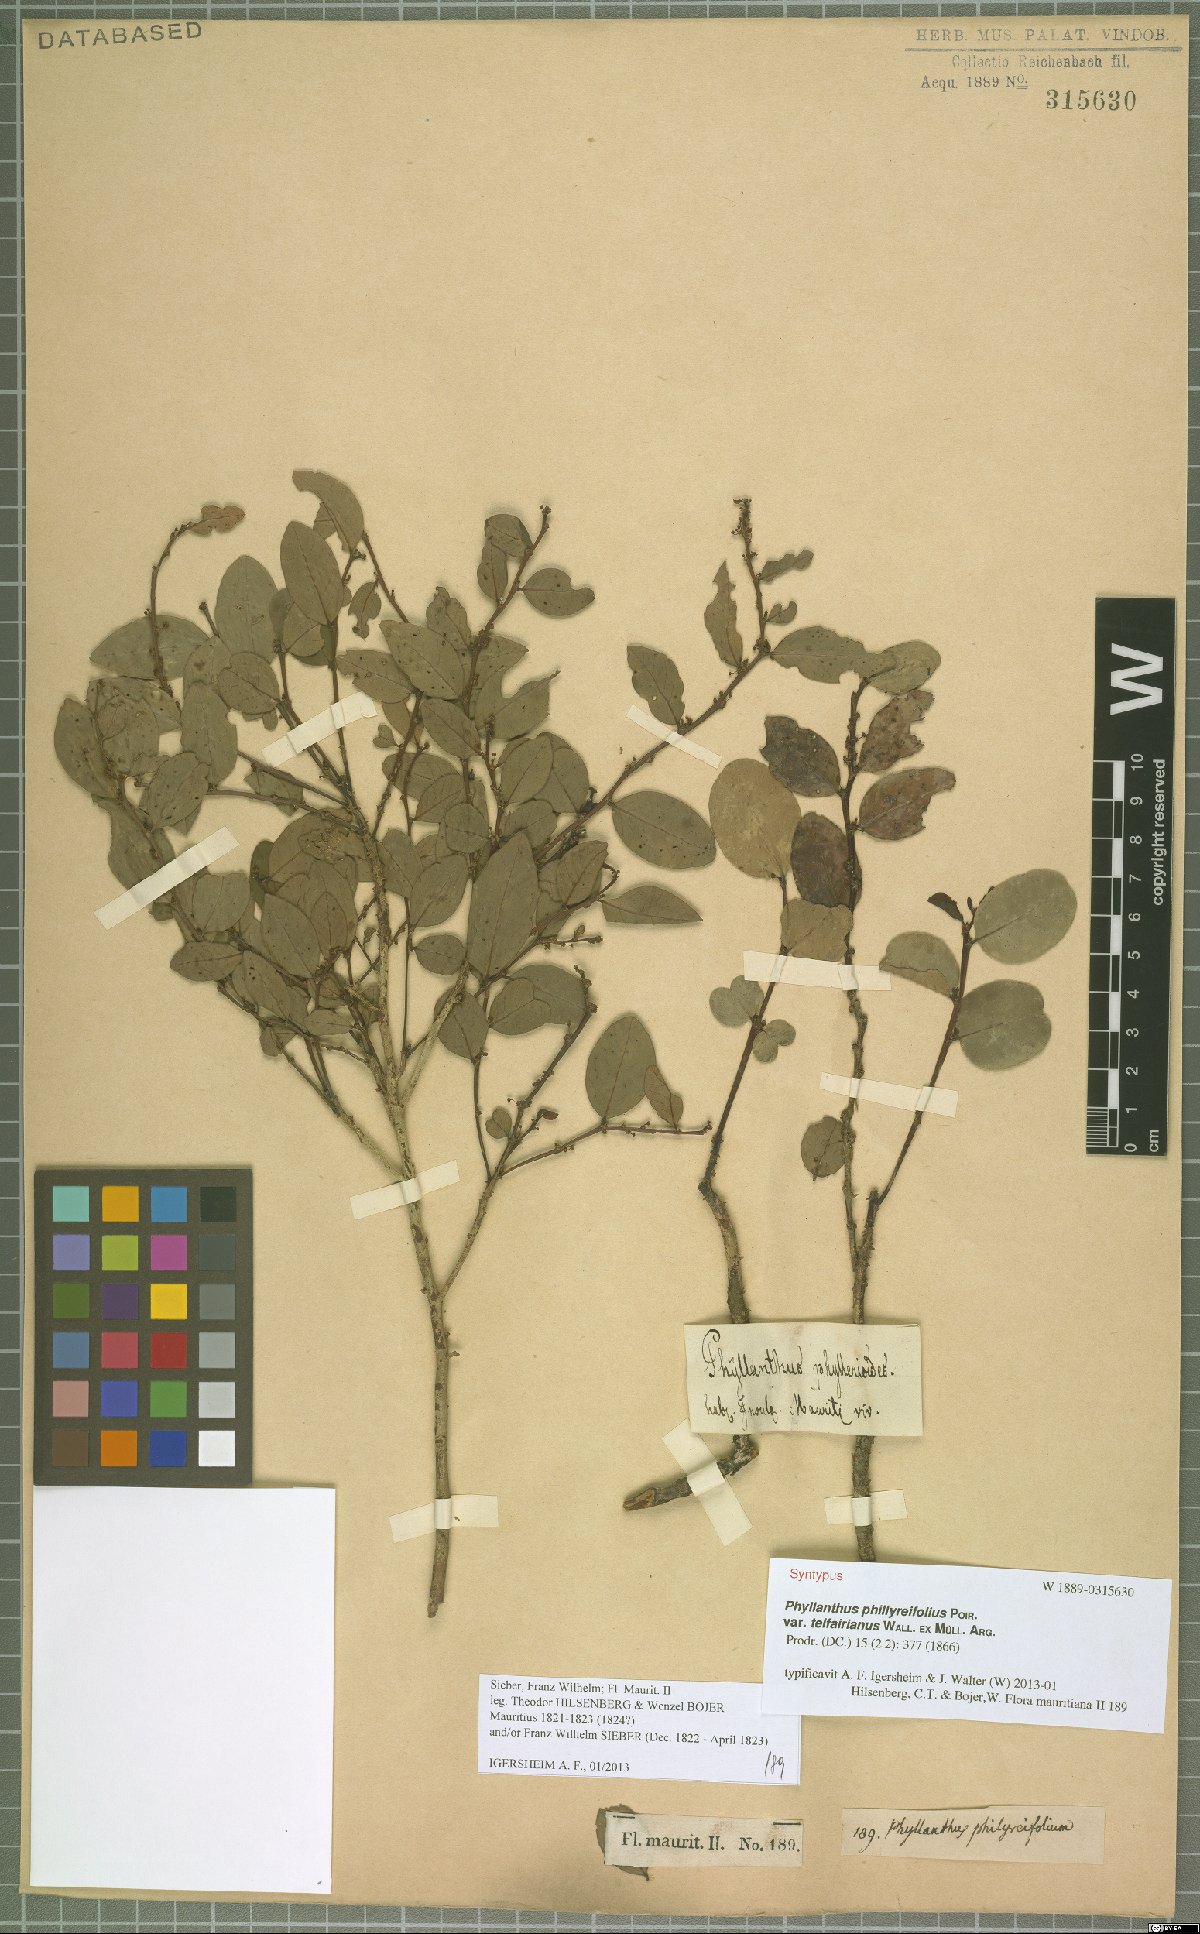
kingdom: Plantae
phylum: Tracheophyta
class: Magnoliopsida
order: Malpighiales
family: Phyllanthaceae
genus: Phyllanthus
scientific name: Phyllanthus phillyreifolius
